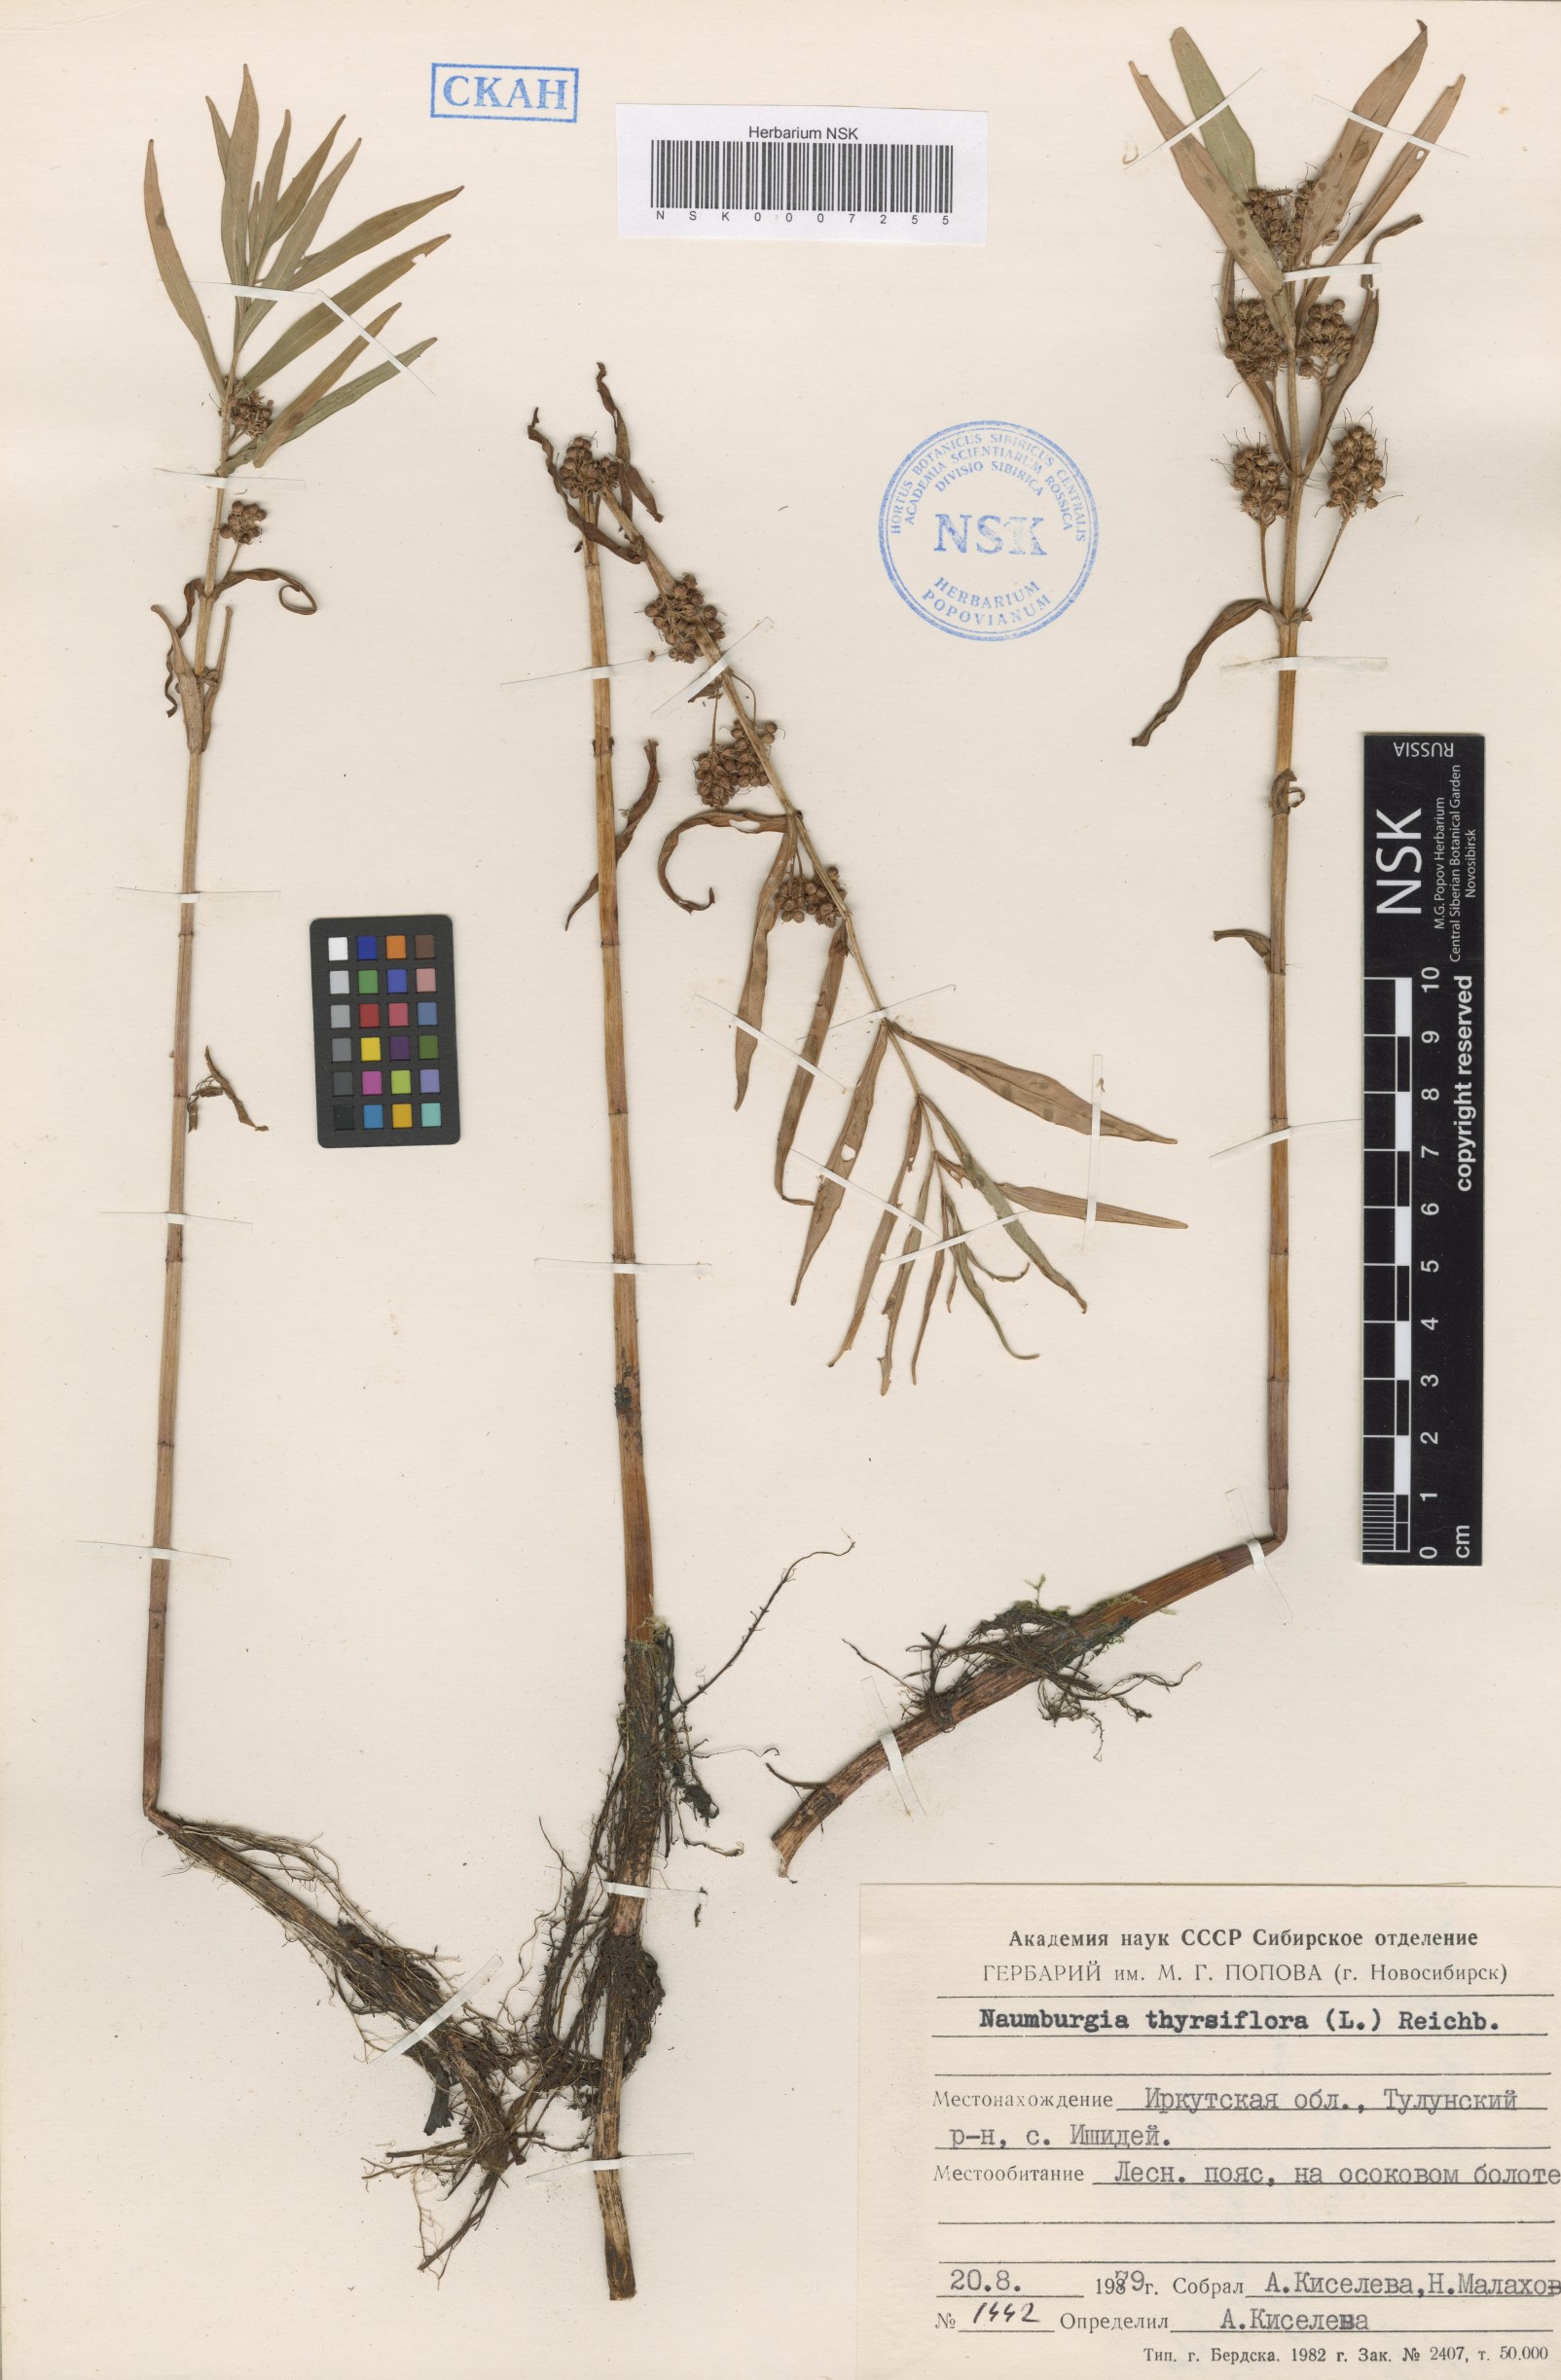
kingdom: Plantae
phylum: Tracheophyta
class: Magnoliopsida
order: Ericales
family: Primulaceae
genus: Lysimachia
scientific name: Lysimachia thyrsiflora
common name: Tufted loosestrife
